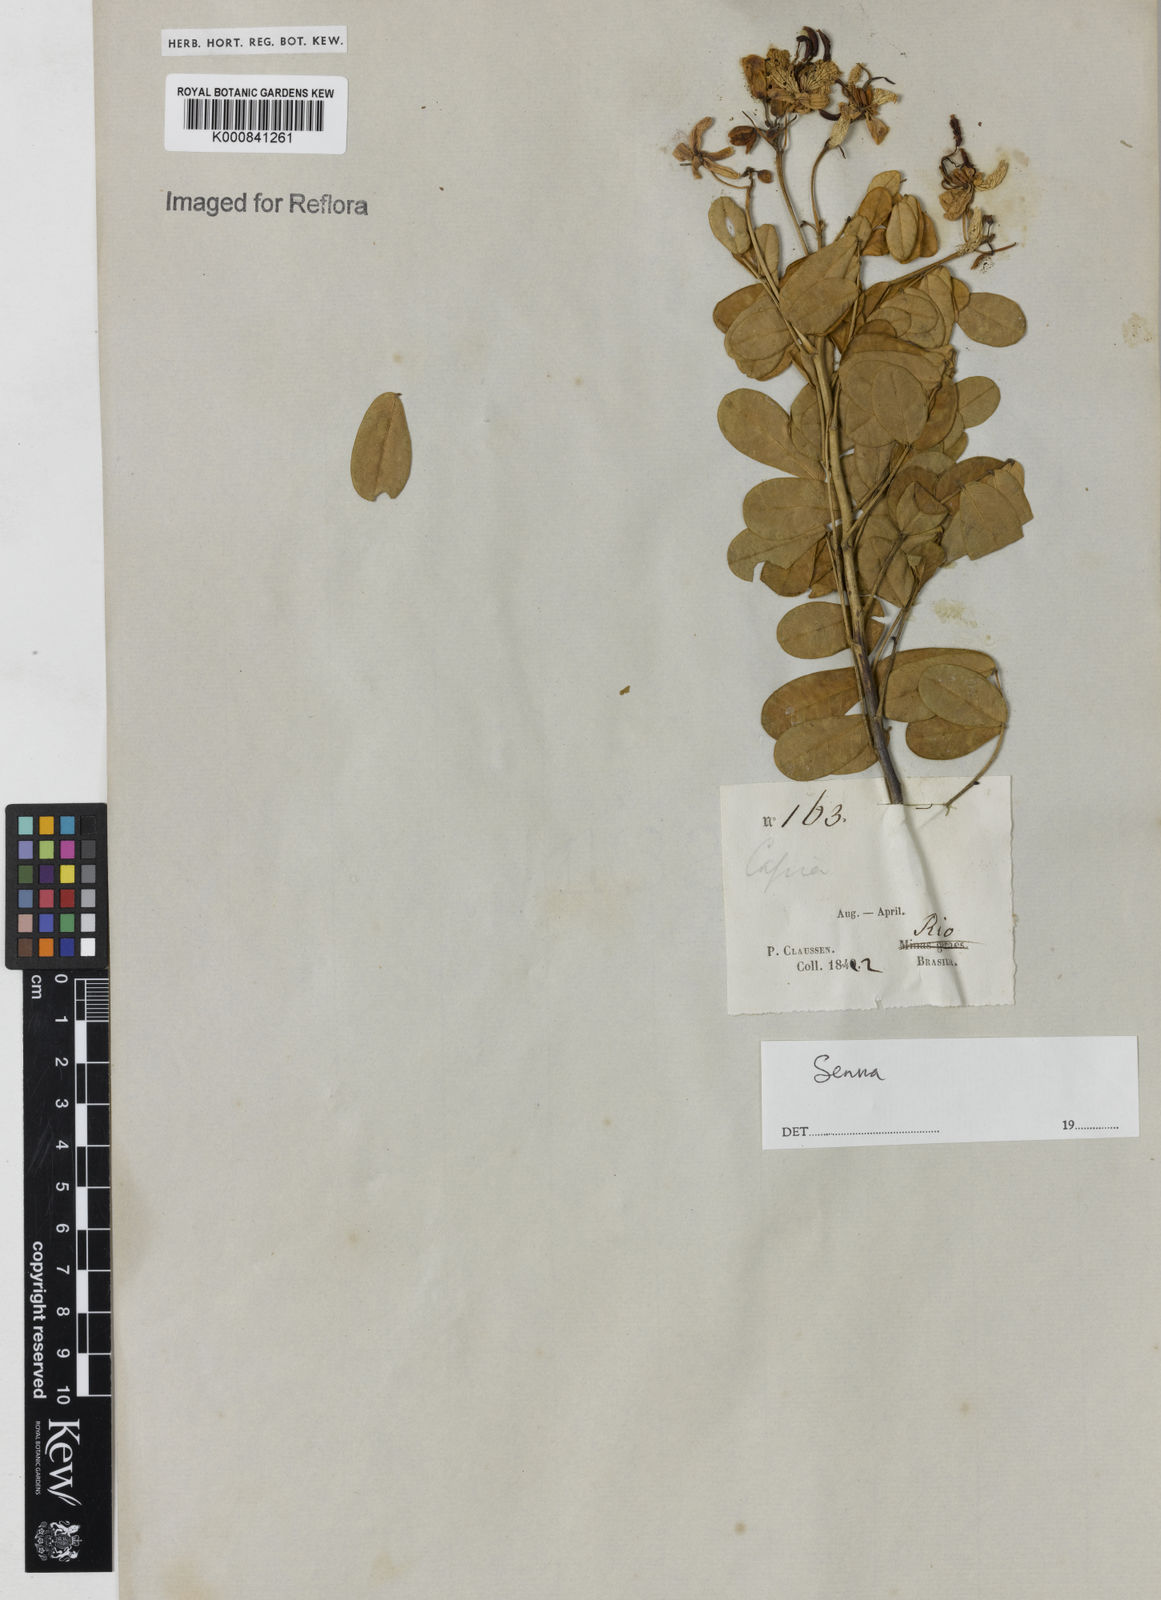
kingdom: Plantae
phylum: Tracheophyta
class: Magnoliopsida
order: Fabales
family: Fabaceae
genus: Senna
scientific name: Senna pendula
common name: Easter cassia
